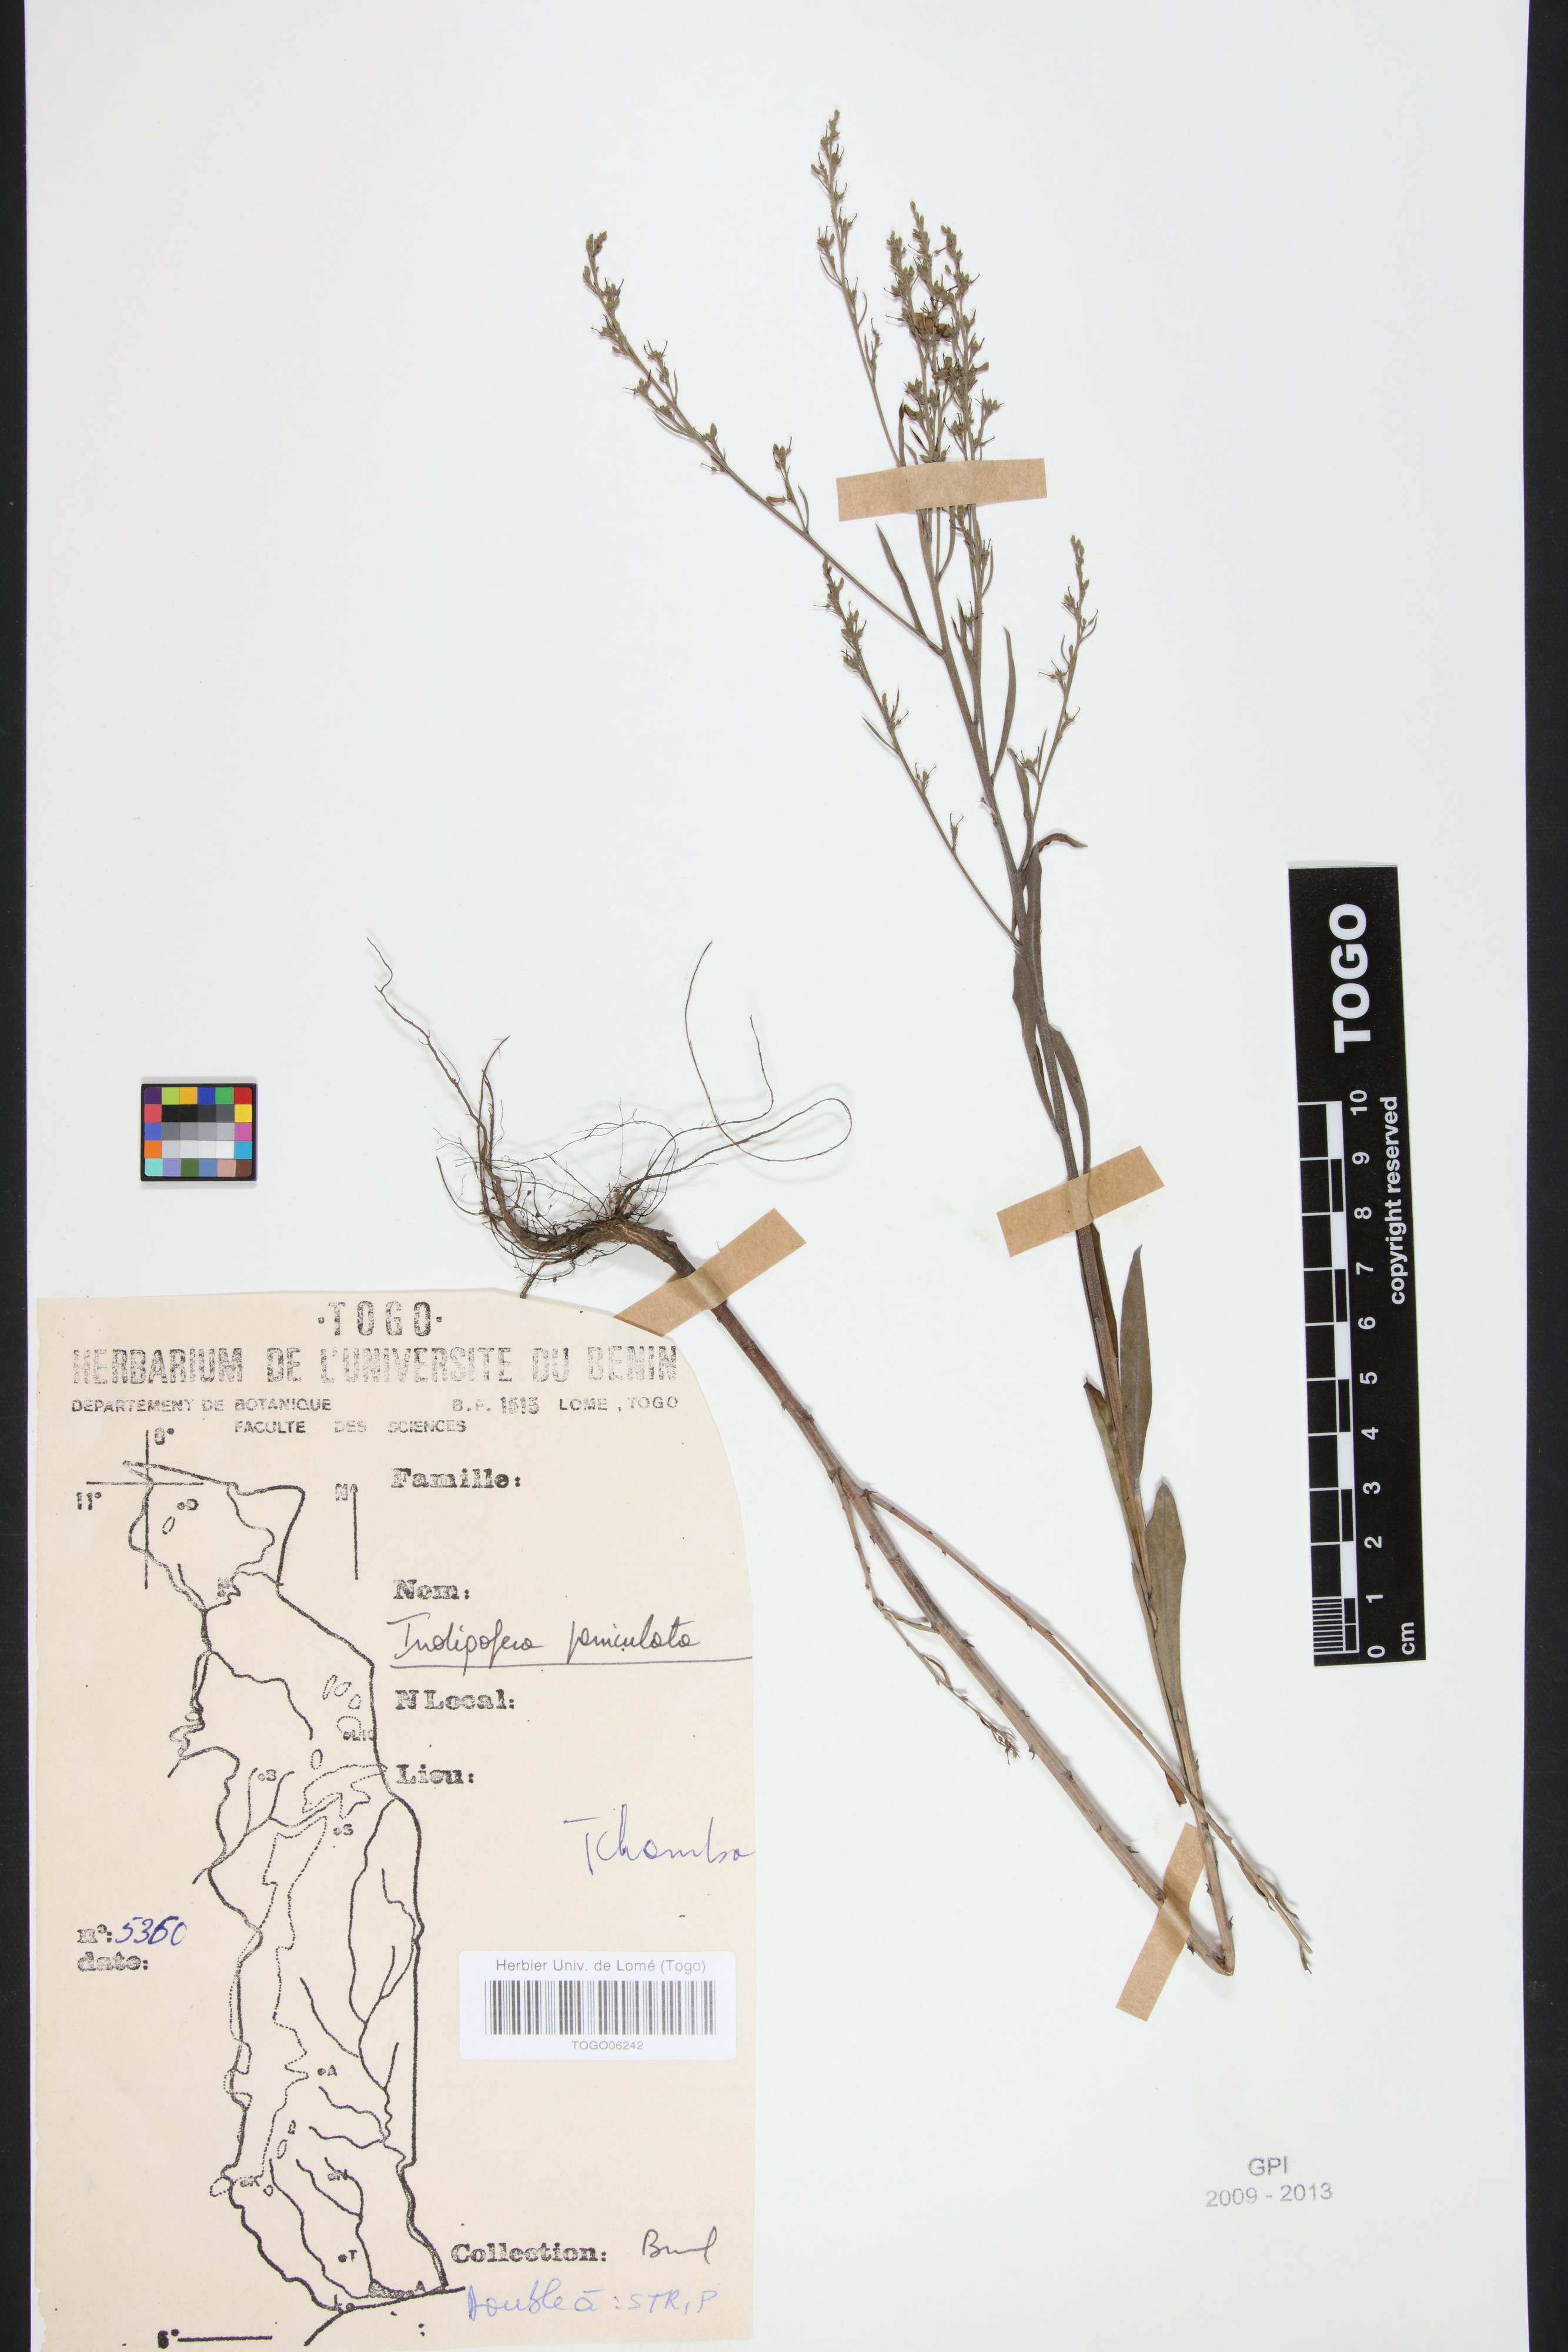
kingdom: Plantae
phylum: Tracheophyta
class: Magnoliopsida
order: Fabales
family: Fabaceae
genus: Indigofera
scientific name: Indigofera paniculata
